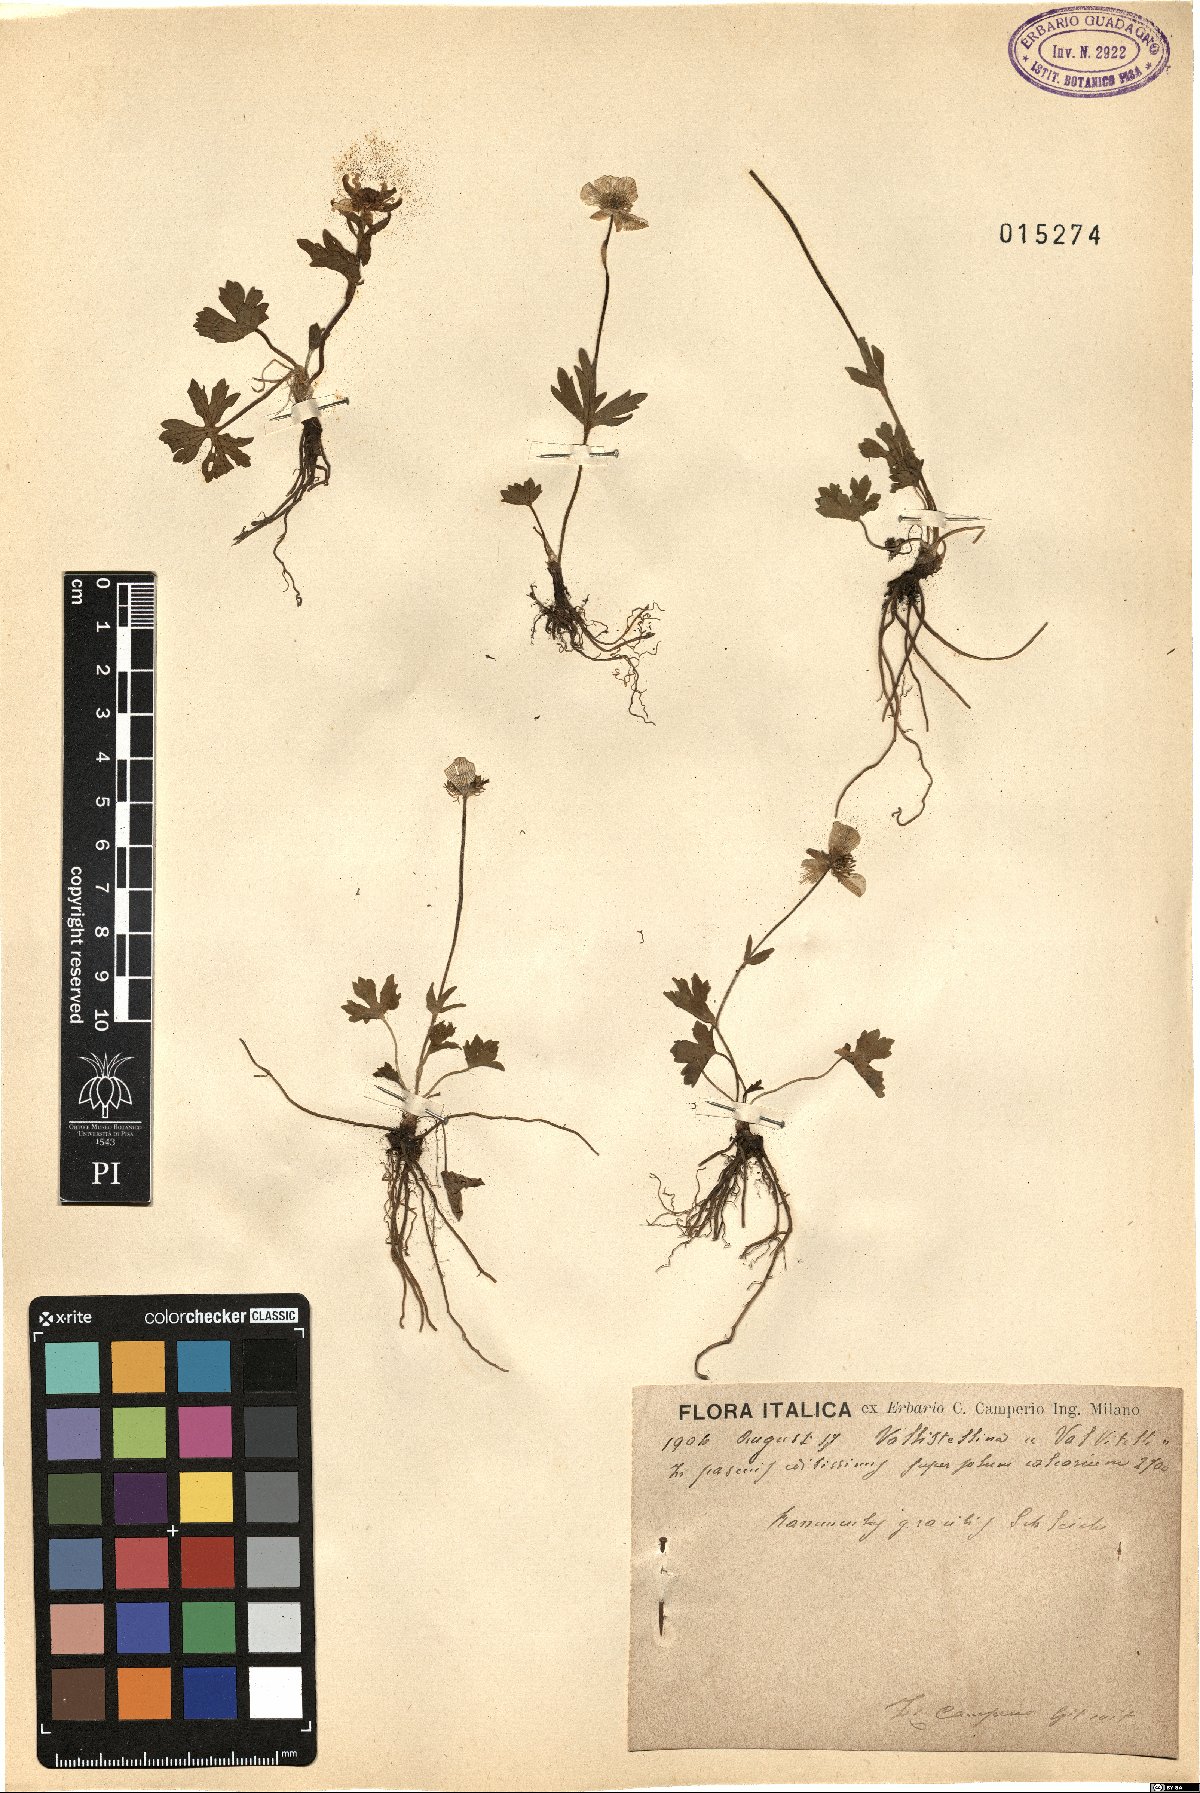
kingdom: Plantae
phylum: Tracheophyta
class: Magnoliopsida
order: Ranunculales
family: Ranunculaceae
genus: Ranunculus
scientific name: Ranunculus montanus
